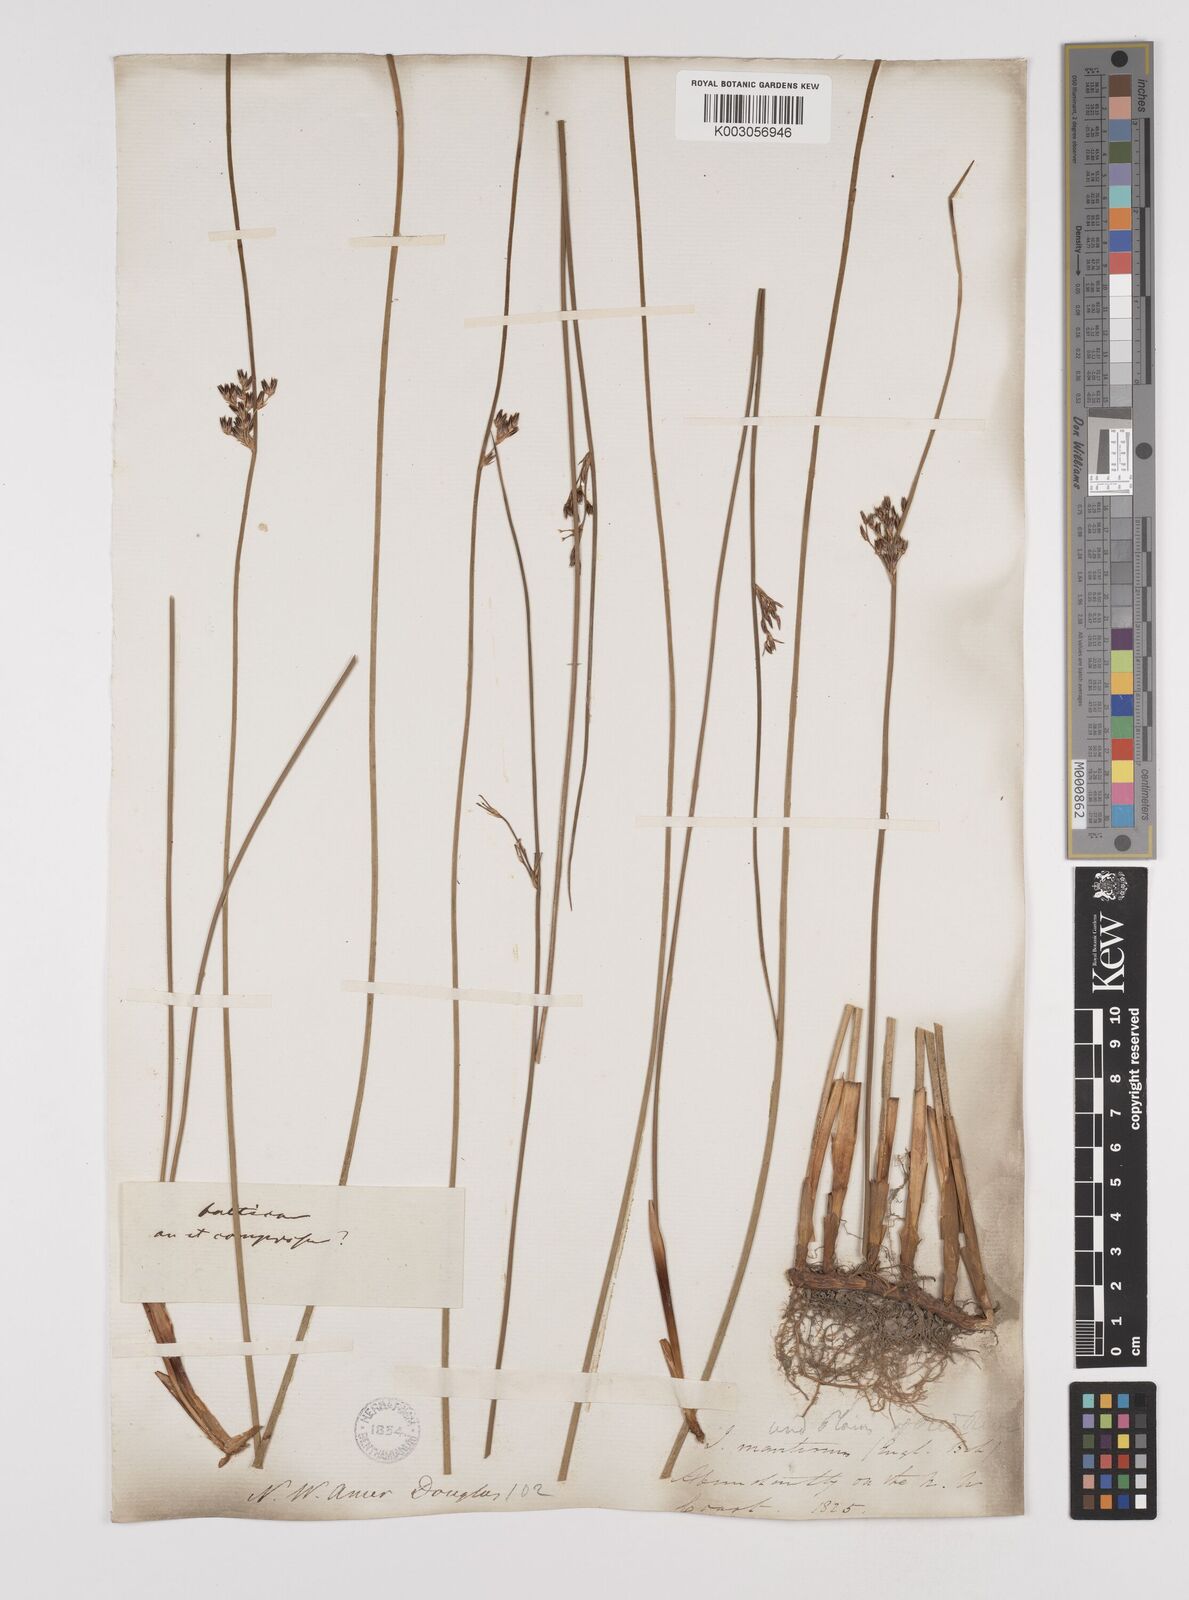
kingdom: Plantae
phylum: Tracheophyta
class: Liliopsida
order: Poales
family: Juncaceae
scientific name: Juncaceae
